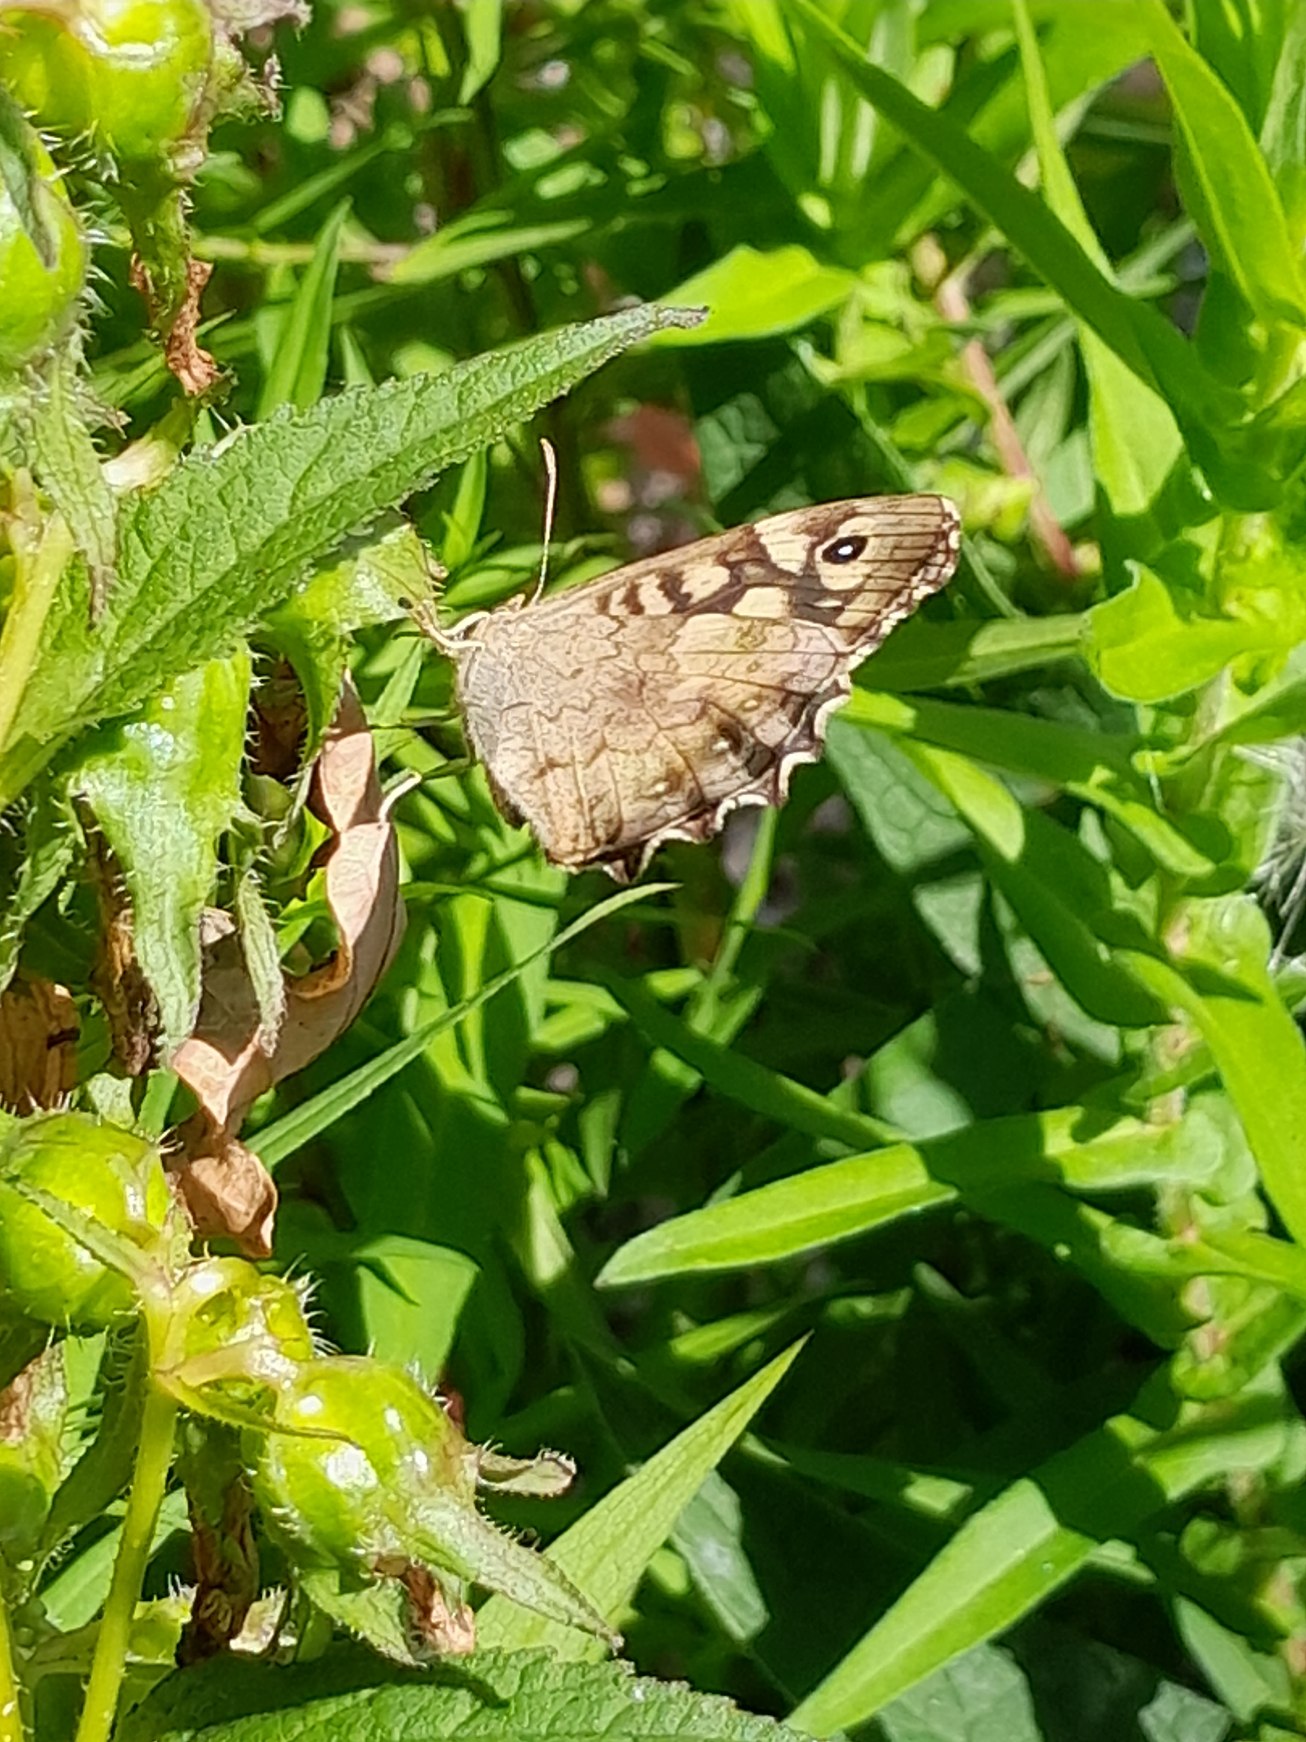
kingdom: Animalia
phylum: Arthropoda
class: Insecta
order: Lepidoptera
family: Nymphalidae
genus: Pararge
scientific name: Pararge aegeria
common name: Skovrandøje
